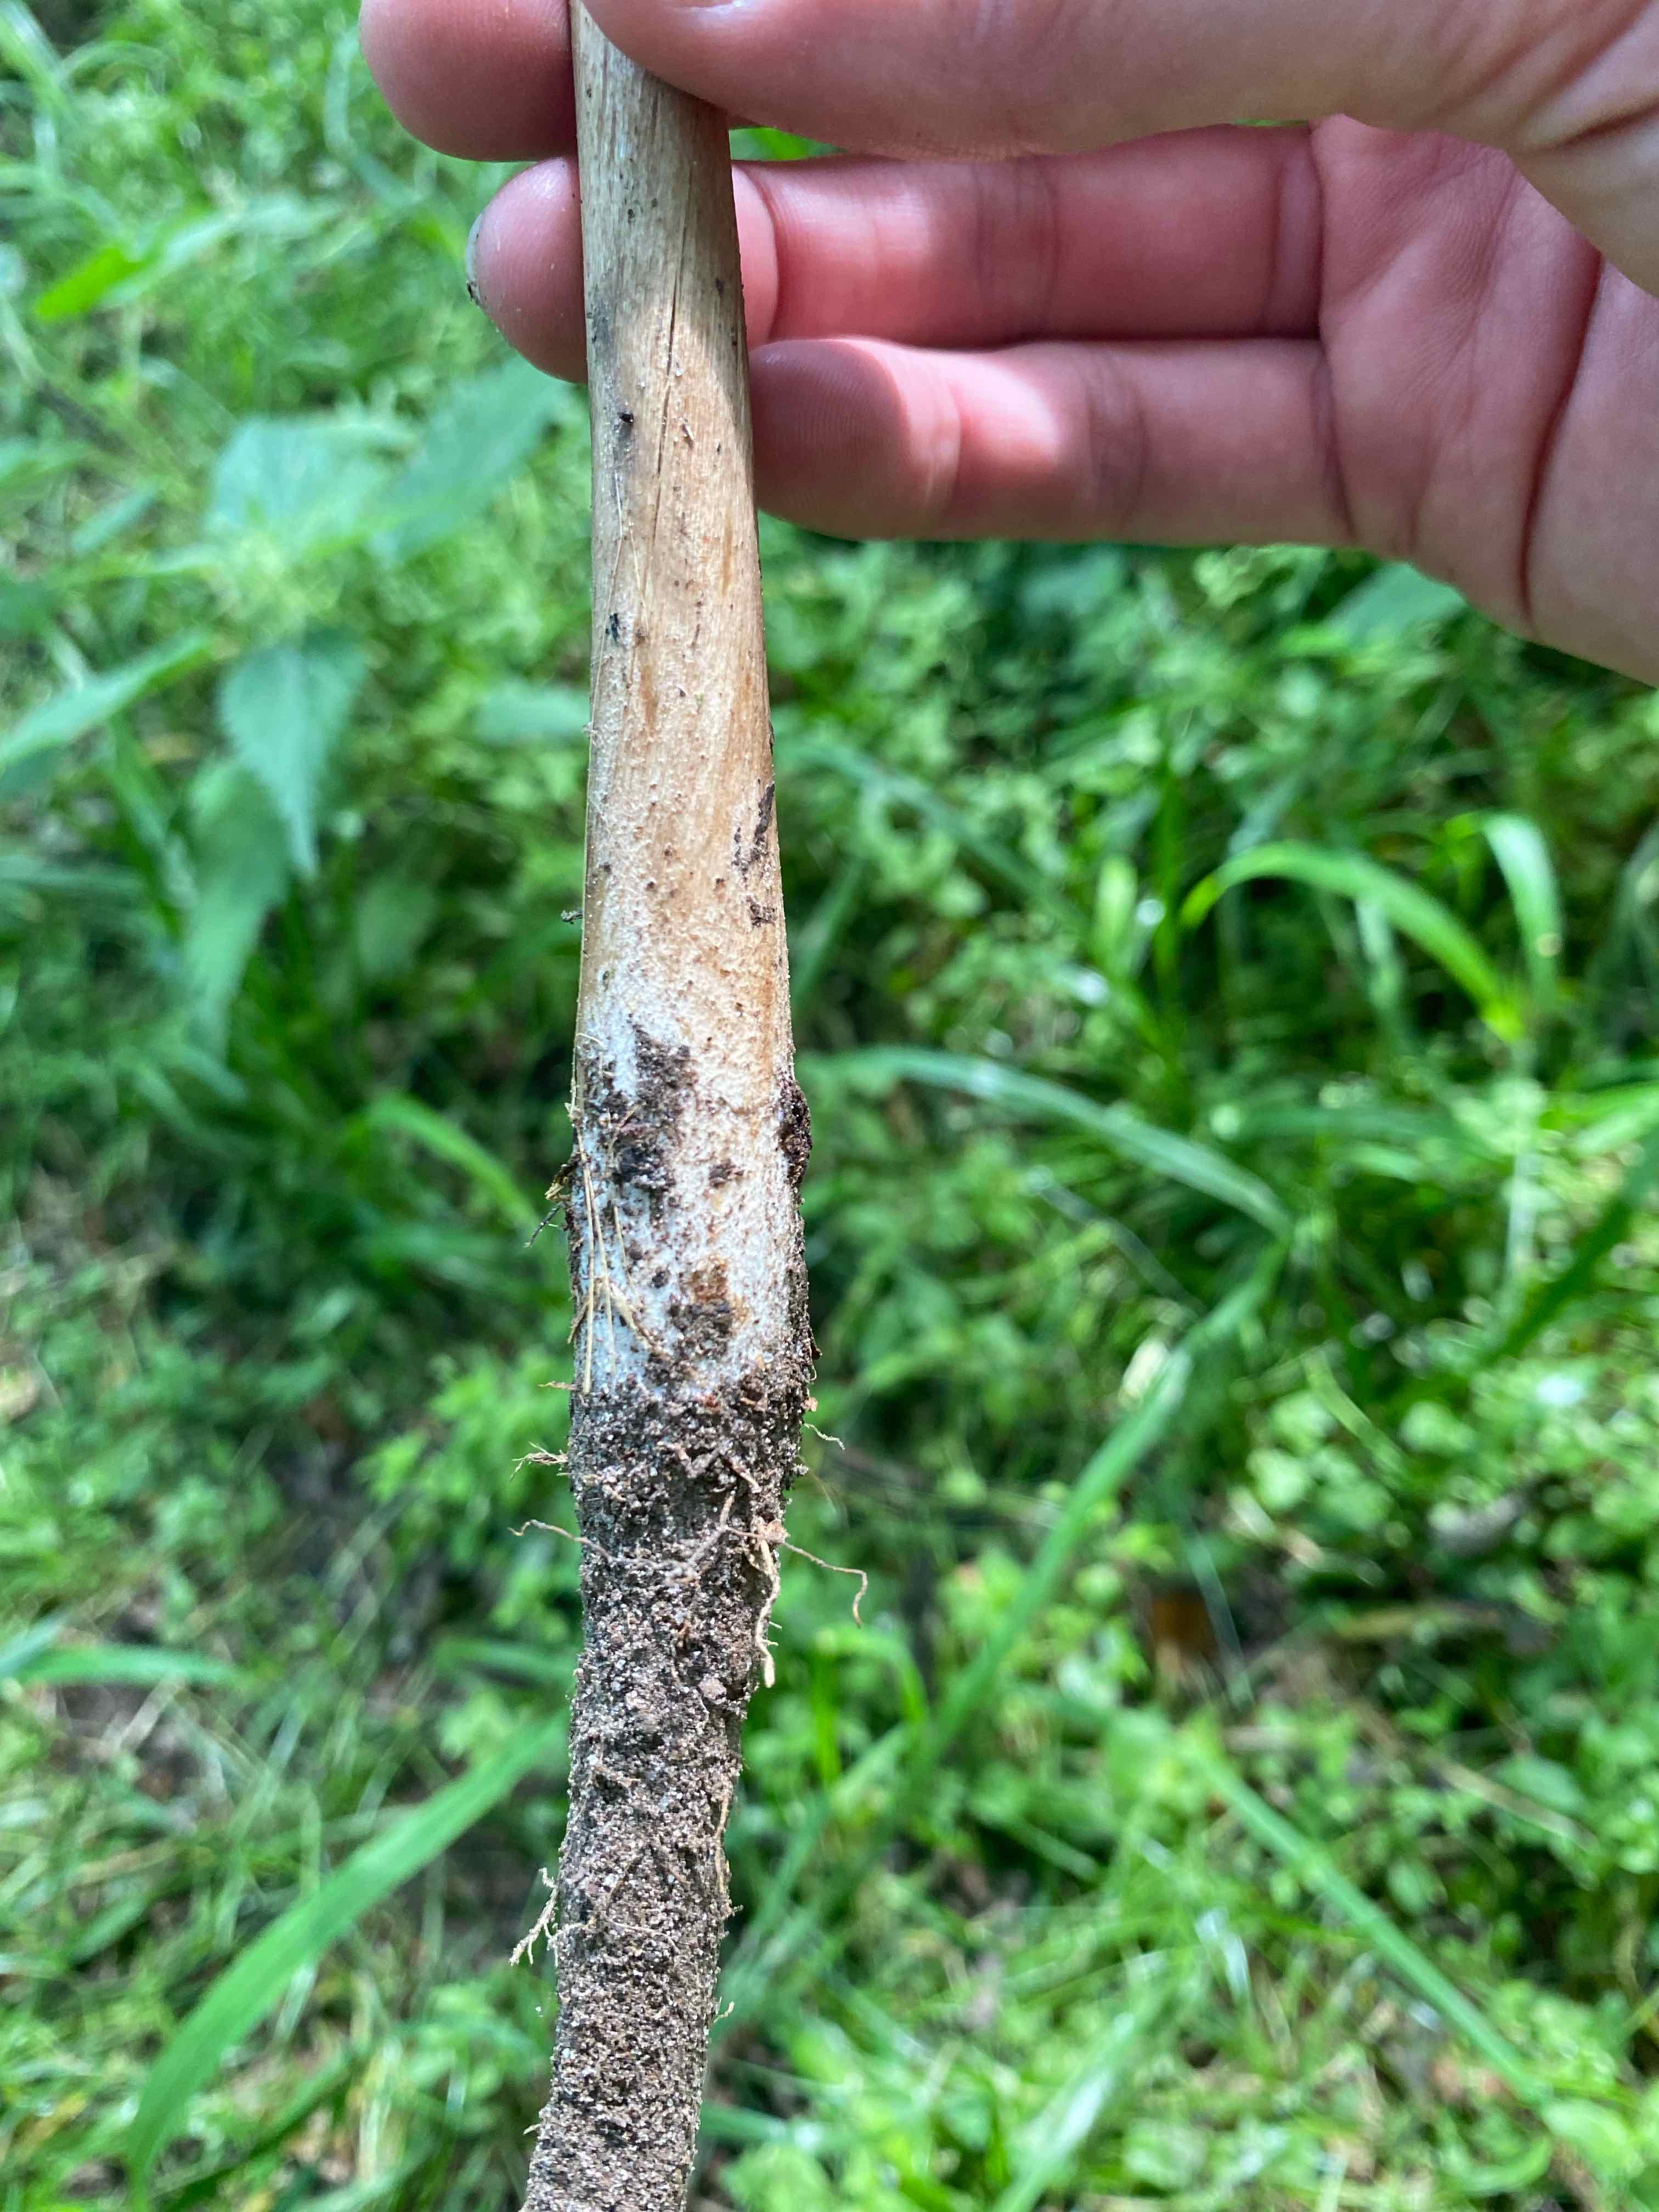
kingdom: Fungi
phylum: Basidiomycota
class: Agaricomycetes
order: Agaricales
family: Physalacriaceae
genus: Hymenopellis
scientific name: Hymenopellis radicata
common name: almindelig pælerodshat
